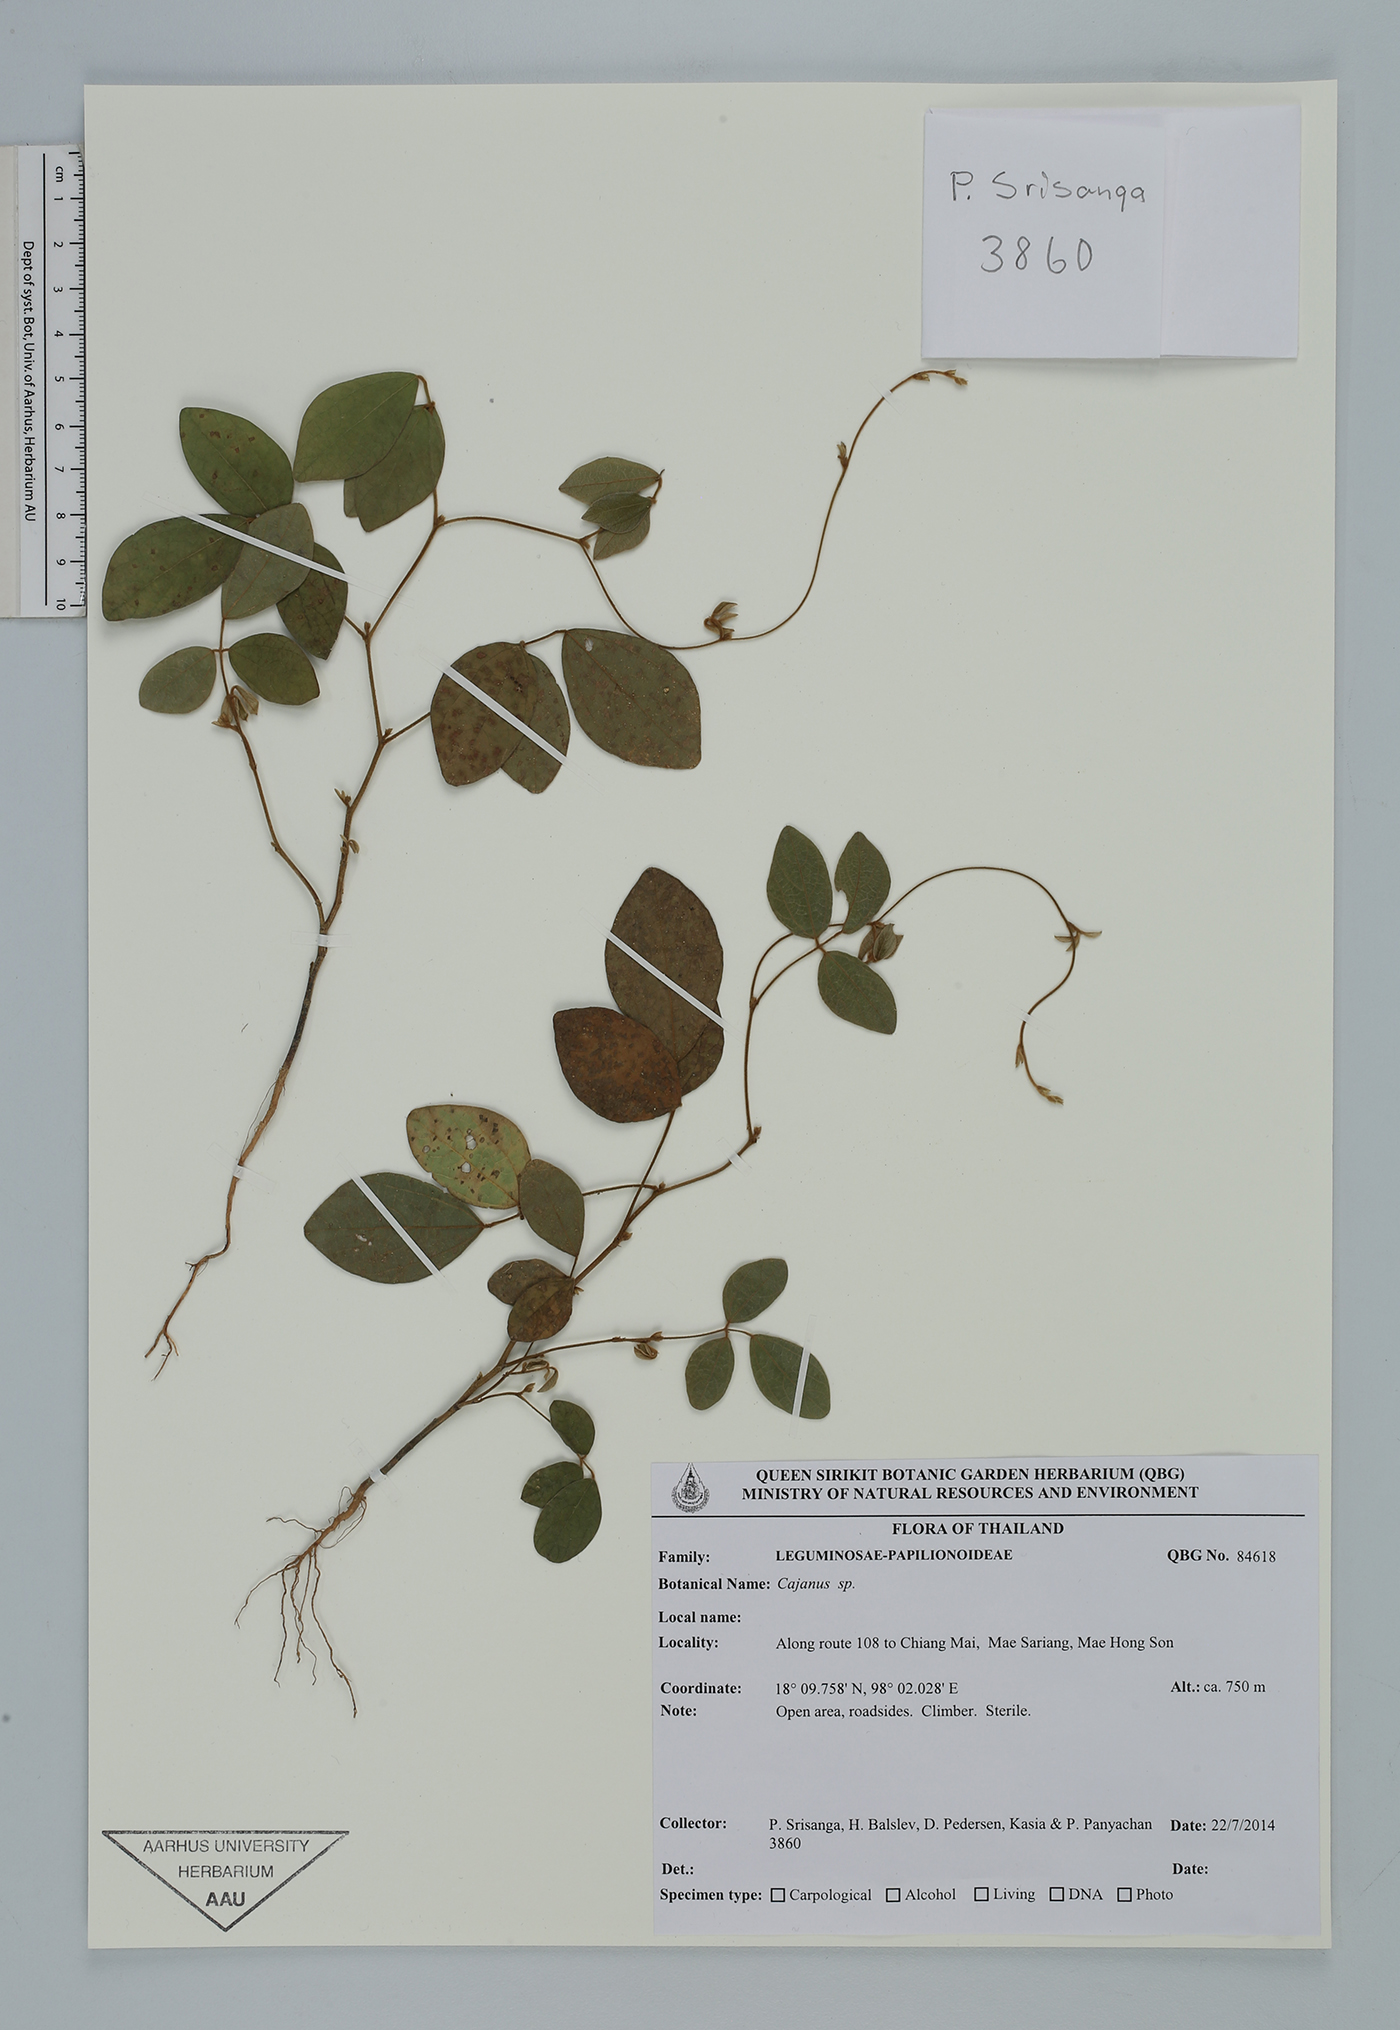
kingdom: Plantae
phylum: Tracheophyta
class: Magnoliopsida
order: Fabales
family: Fabaceae
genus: Cajanus
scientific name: Cajanus
